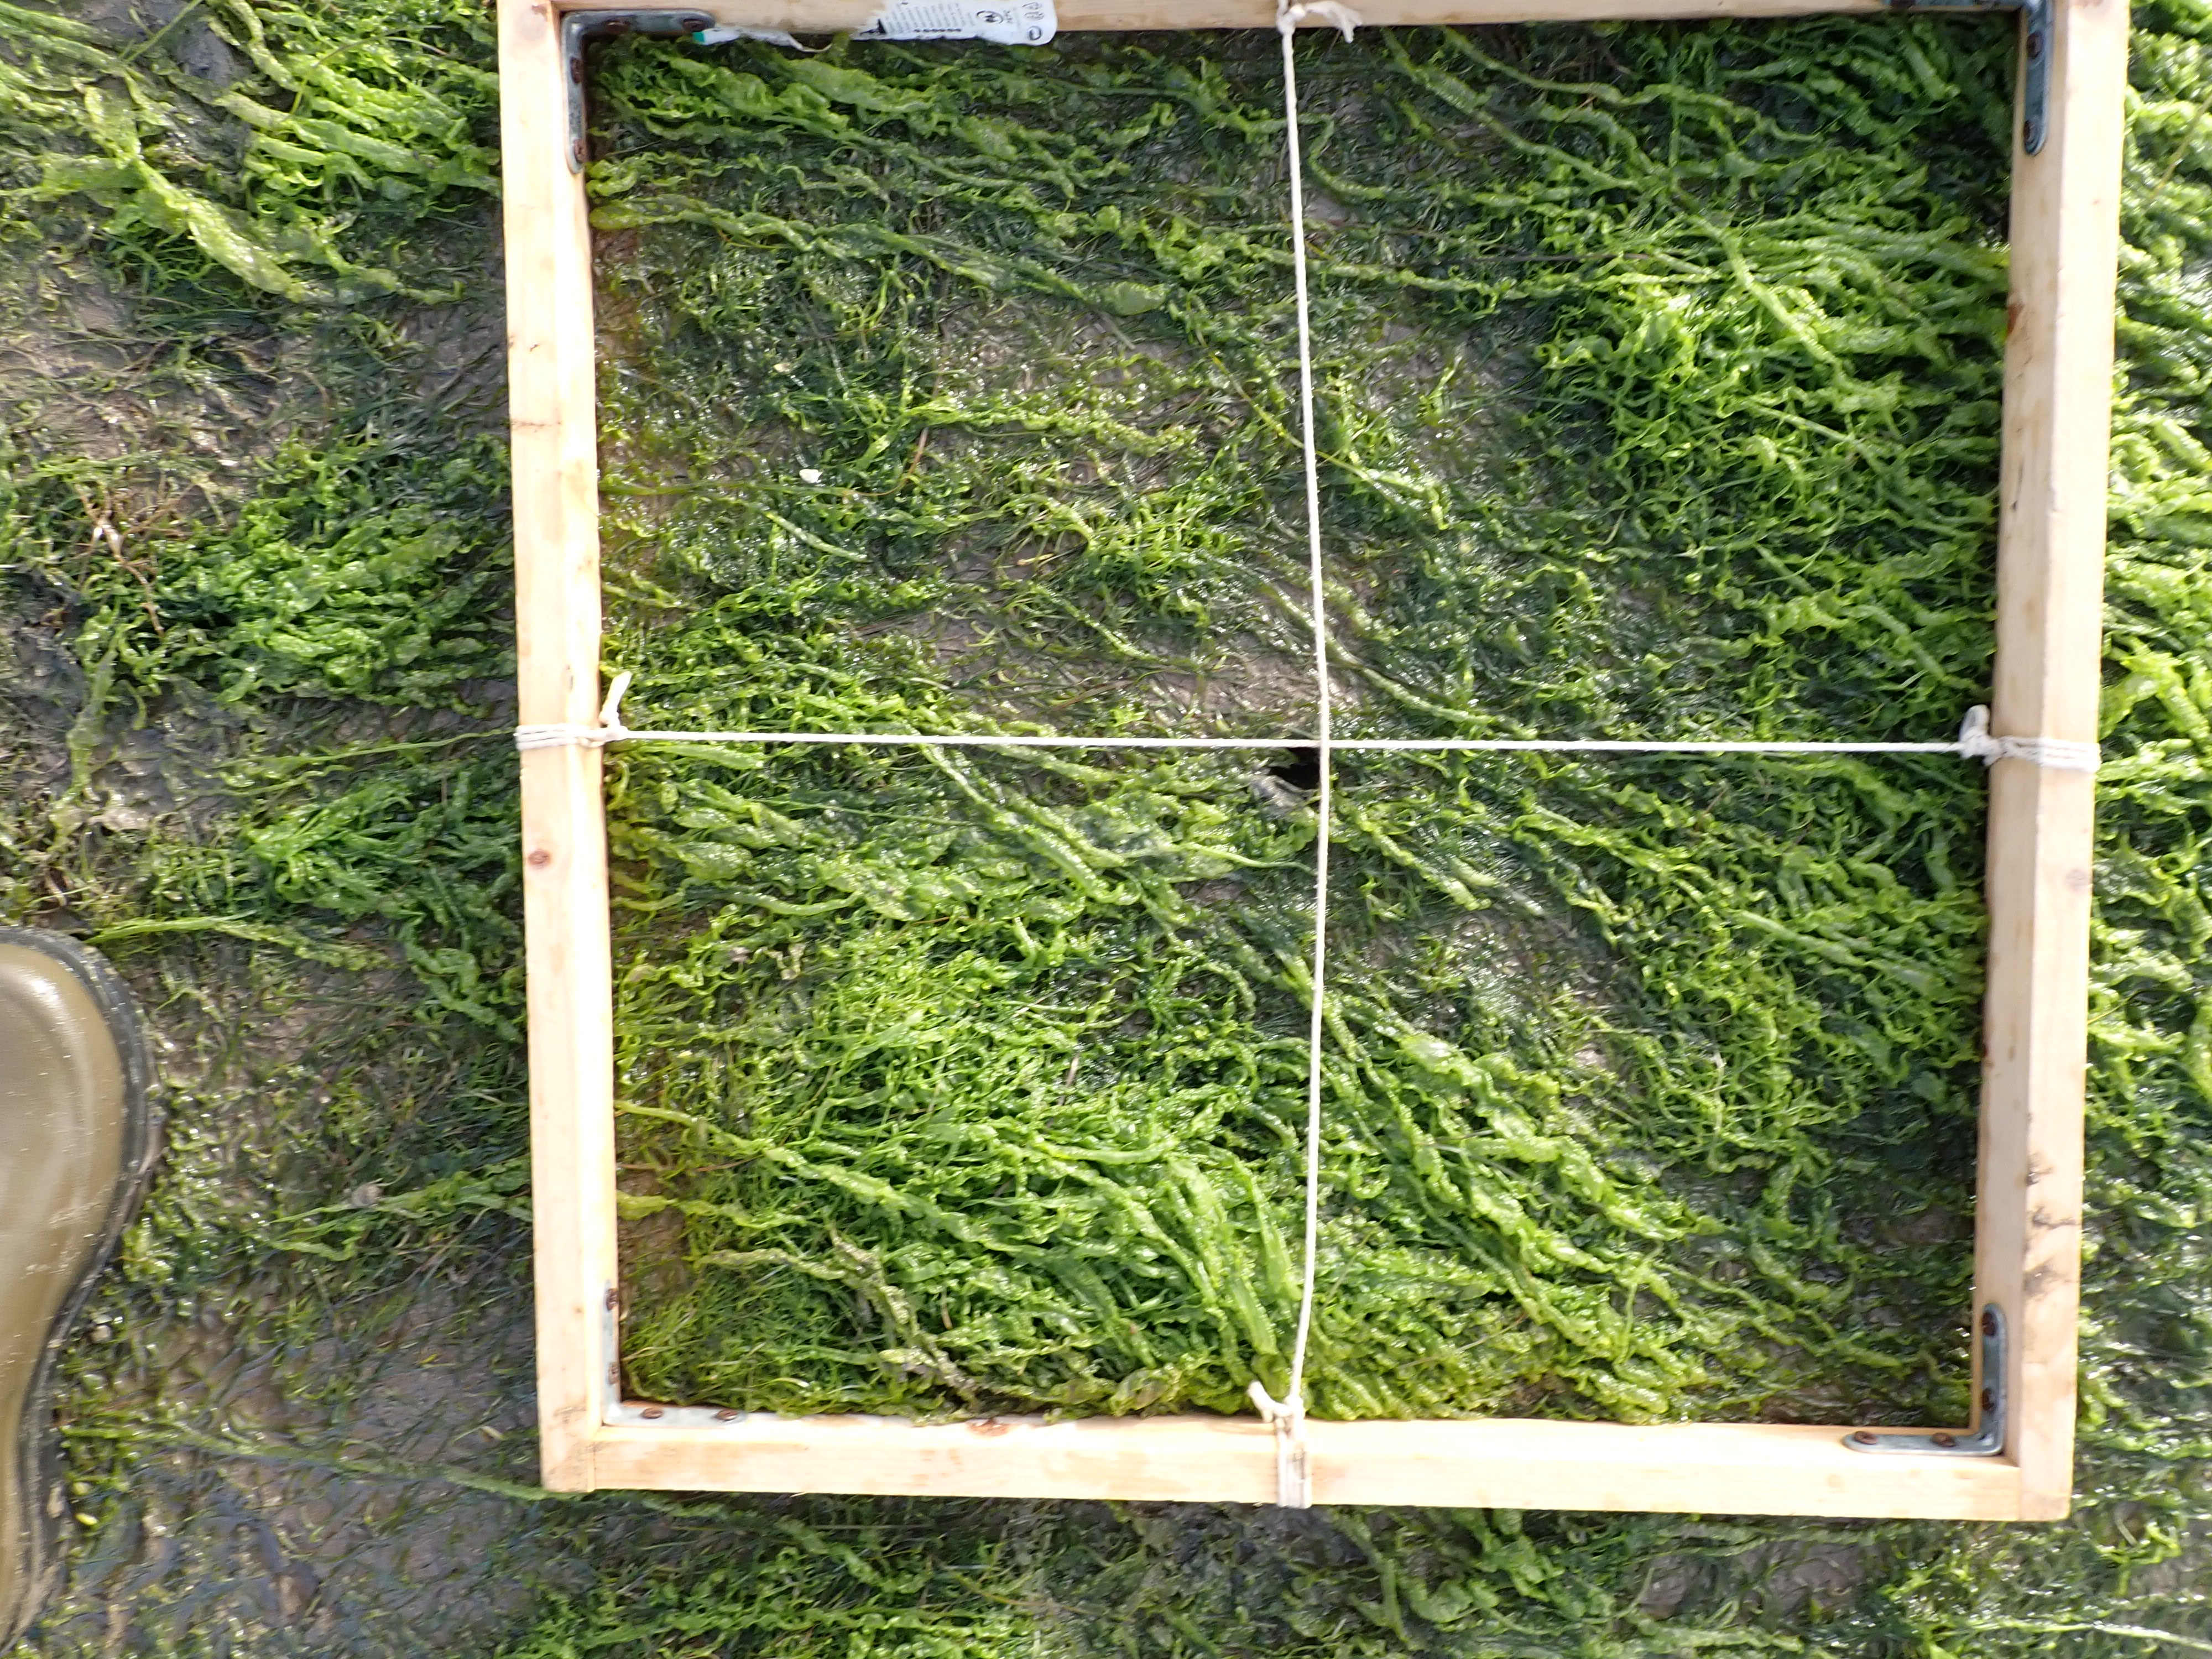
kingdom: Plantae
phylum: Tracheophyta
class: Liliopsida
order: Alismatales
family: Zosteraceae
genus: Zostera
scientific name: Zostera noltii
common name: Dwarf eelgrass
